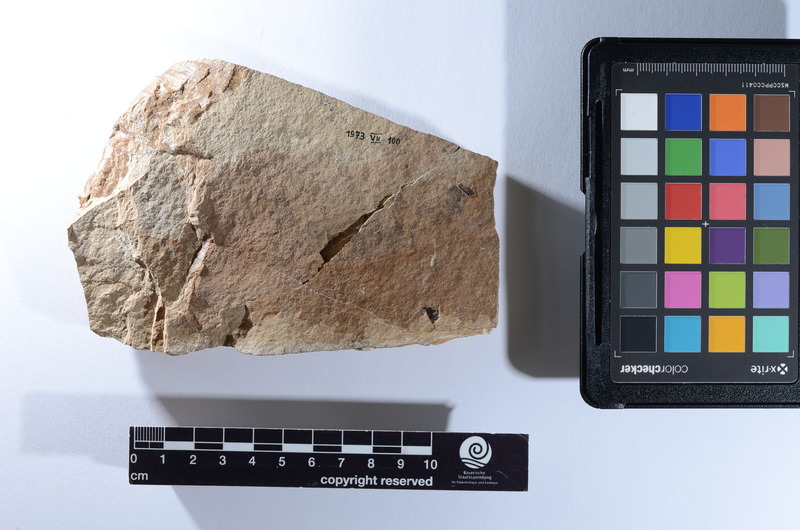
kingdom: Animalia
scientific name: Animalia
